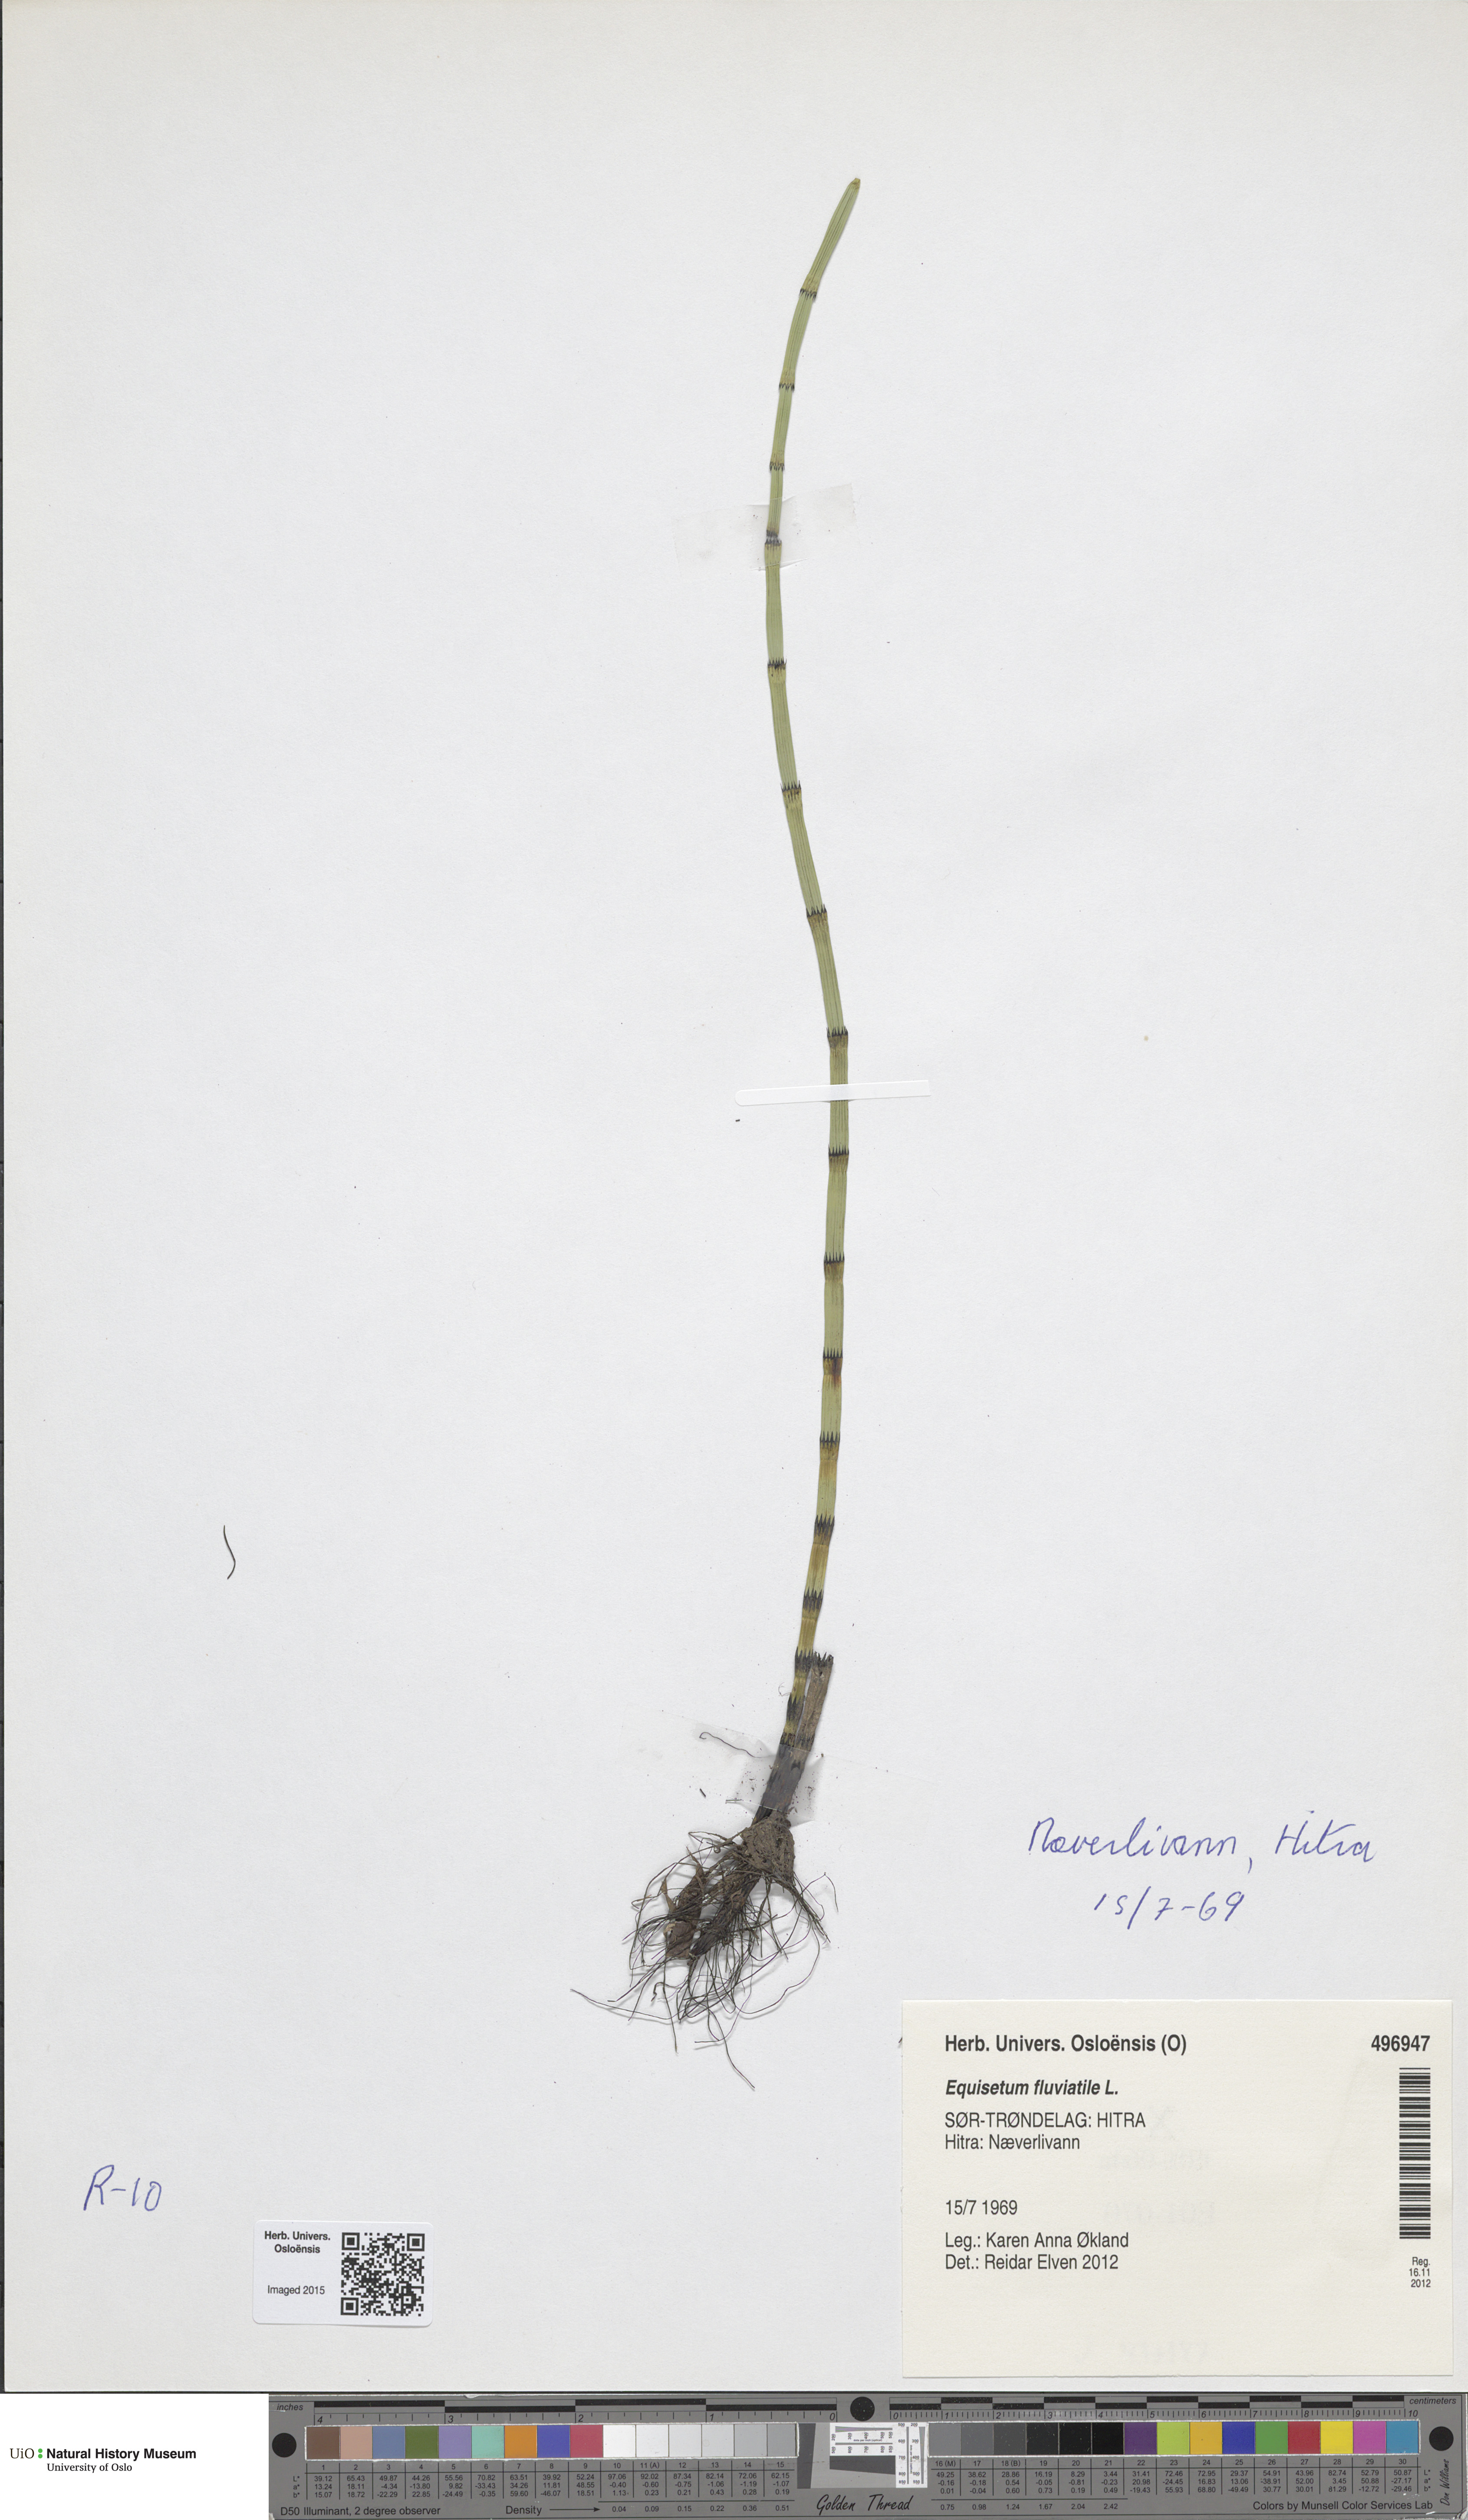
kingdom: Plantae
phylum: Tracheophyta
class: Polypodiopsida
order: Equisetales
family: Equisetaceae
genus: Equisetum
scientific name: Equisetum fluviatile
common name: Water horsetail
